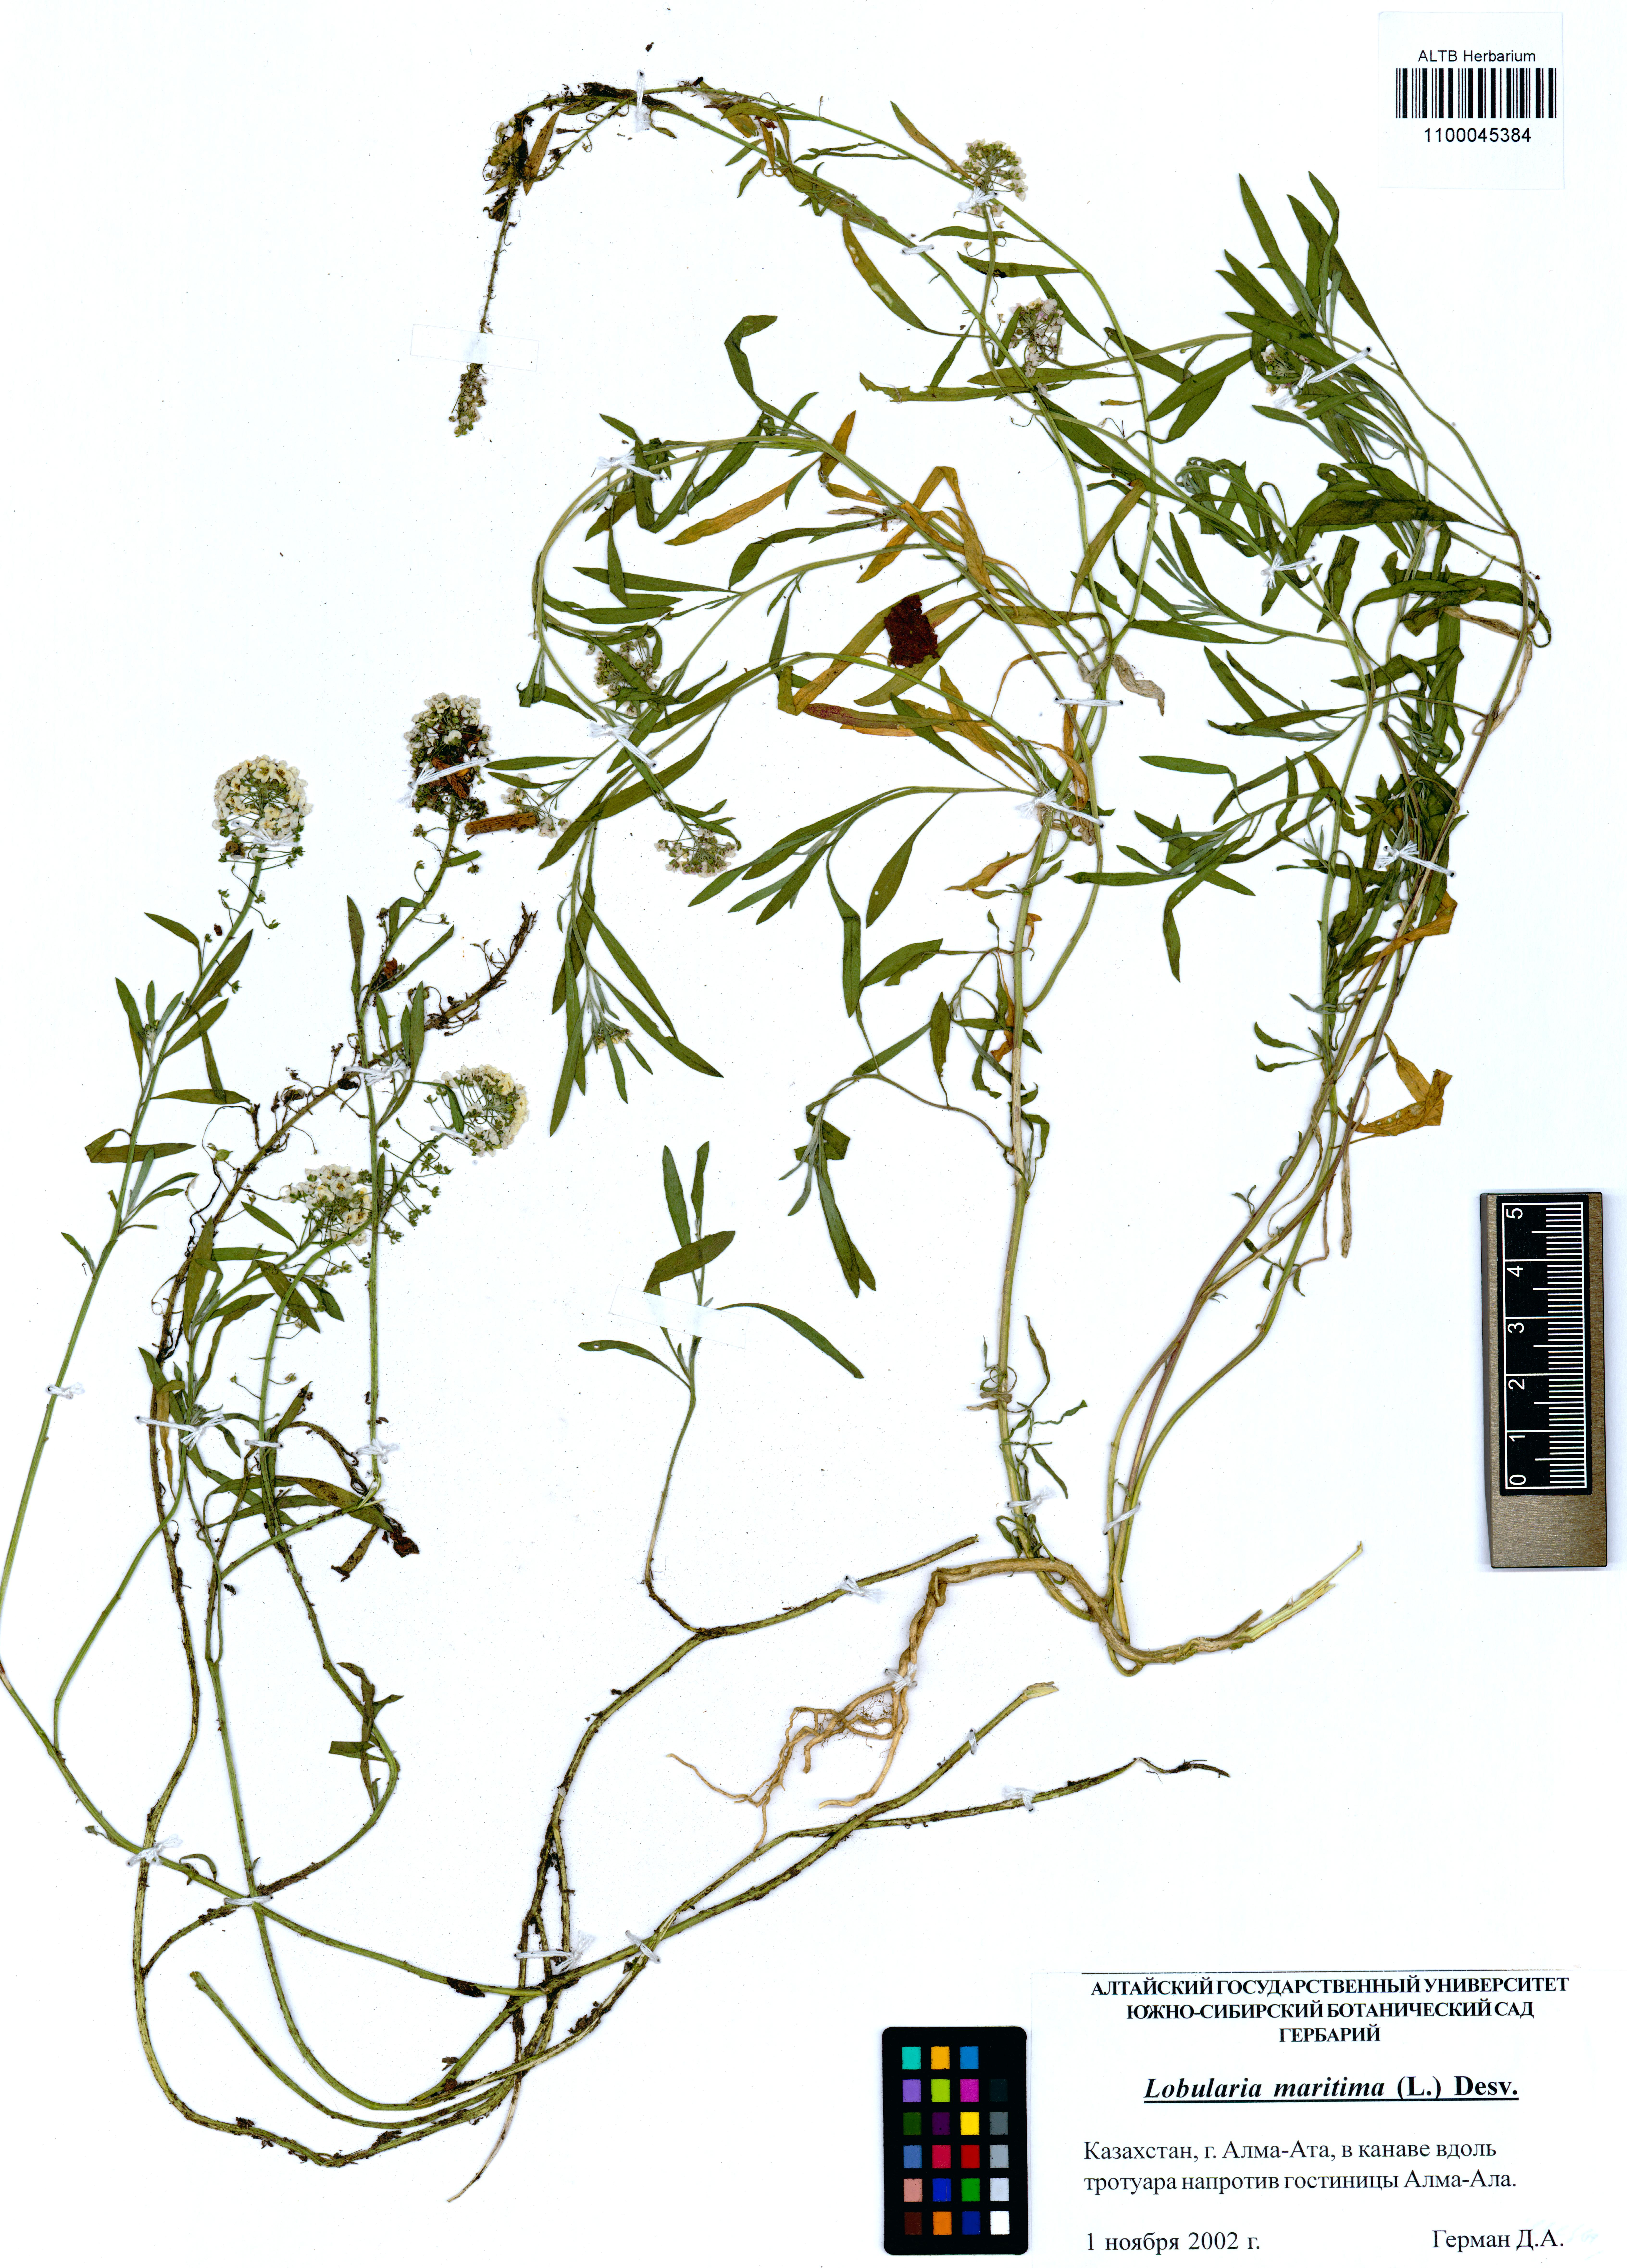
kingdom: Plantae
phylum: Tracheophyta
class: Magnoliopsida
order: Brassicales
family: Brassicaceae
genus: Lobularia
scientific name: Lobularia maritima
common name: Sweet alison
